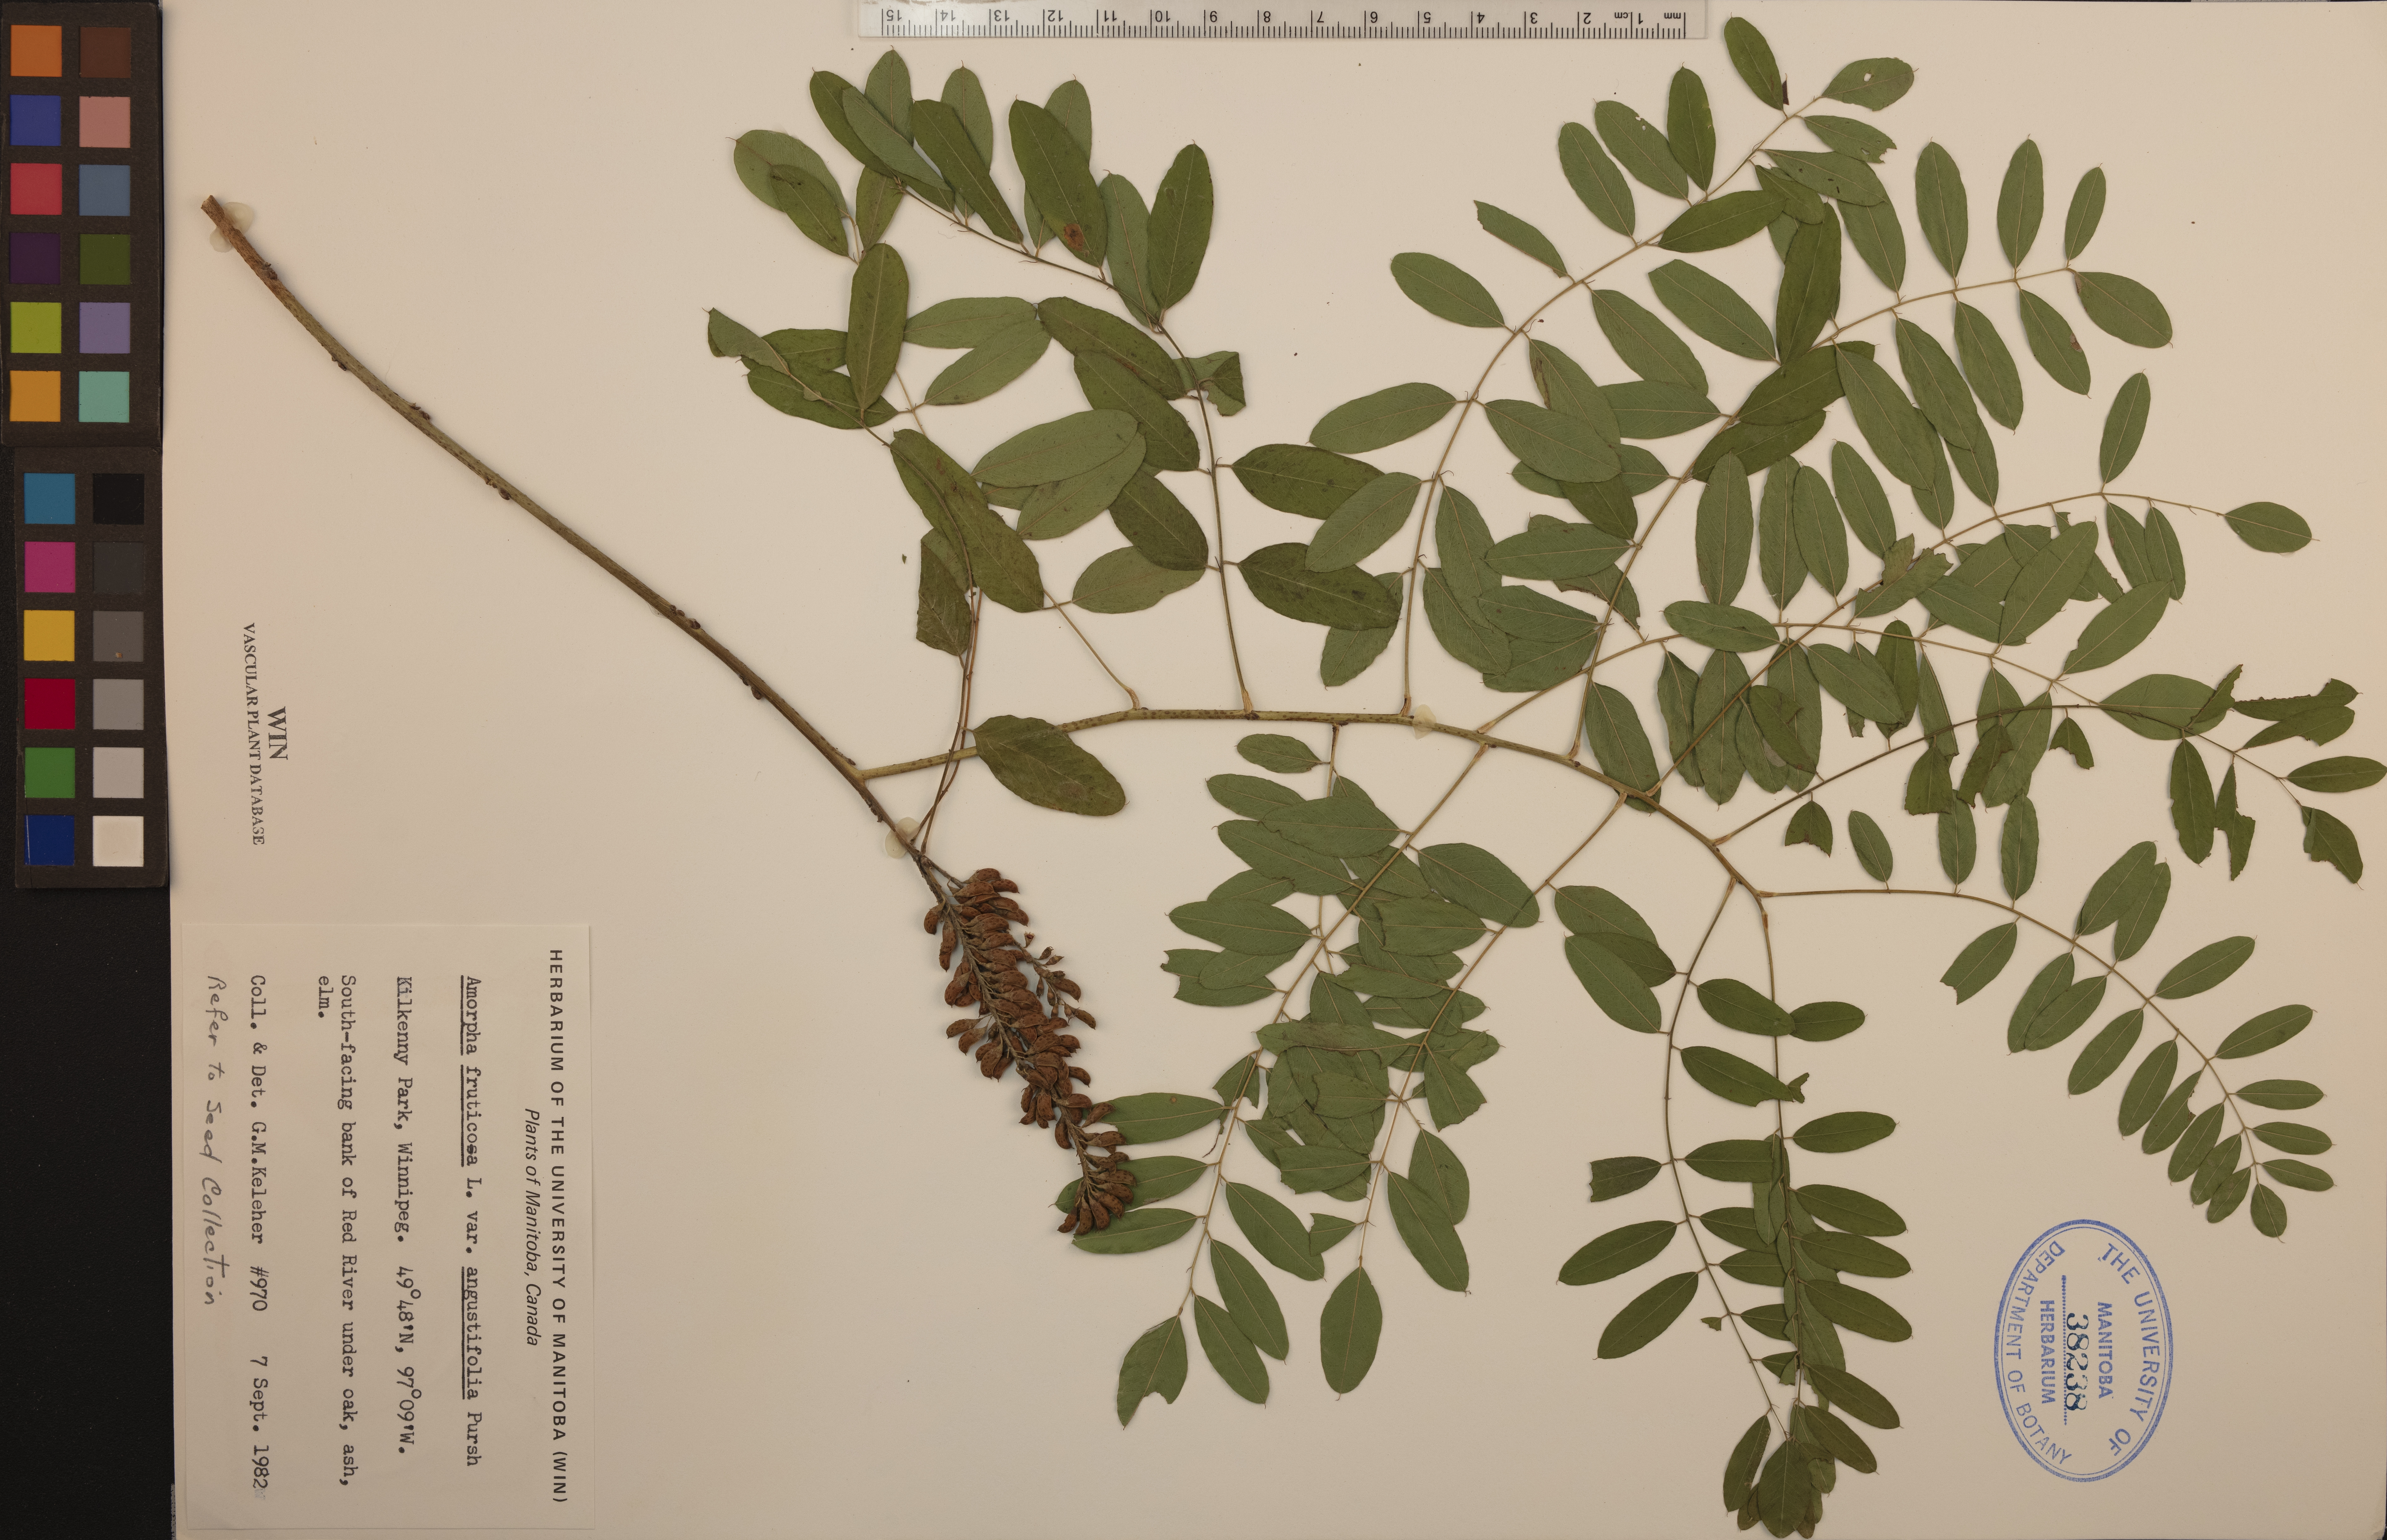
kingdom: Plantae
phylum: Tracheophyta
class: Magnoliopsida
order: Fabales
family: Fabaceae
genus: Amorpha
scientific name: Amorpha fruticosa
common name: False indigo
